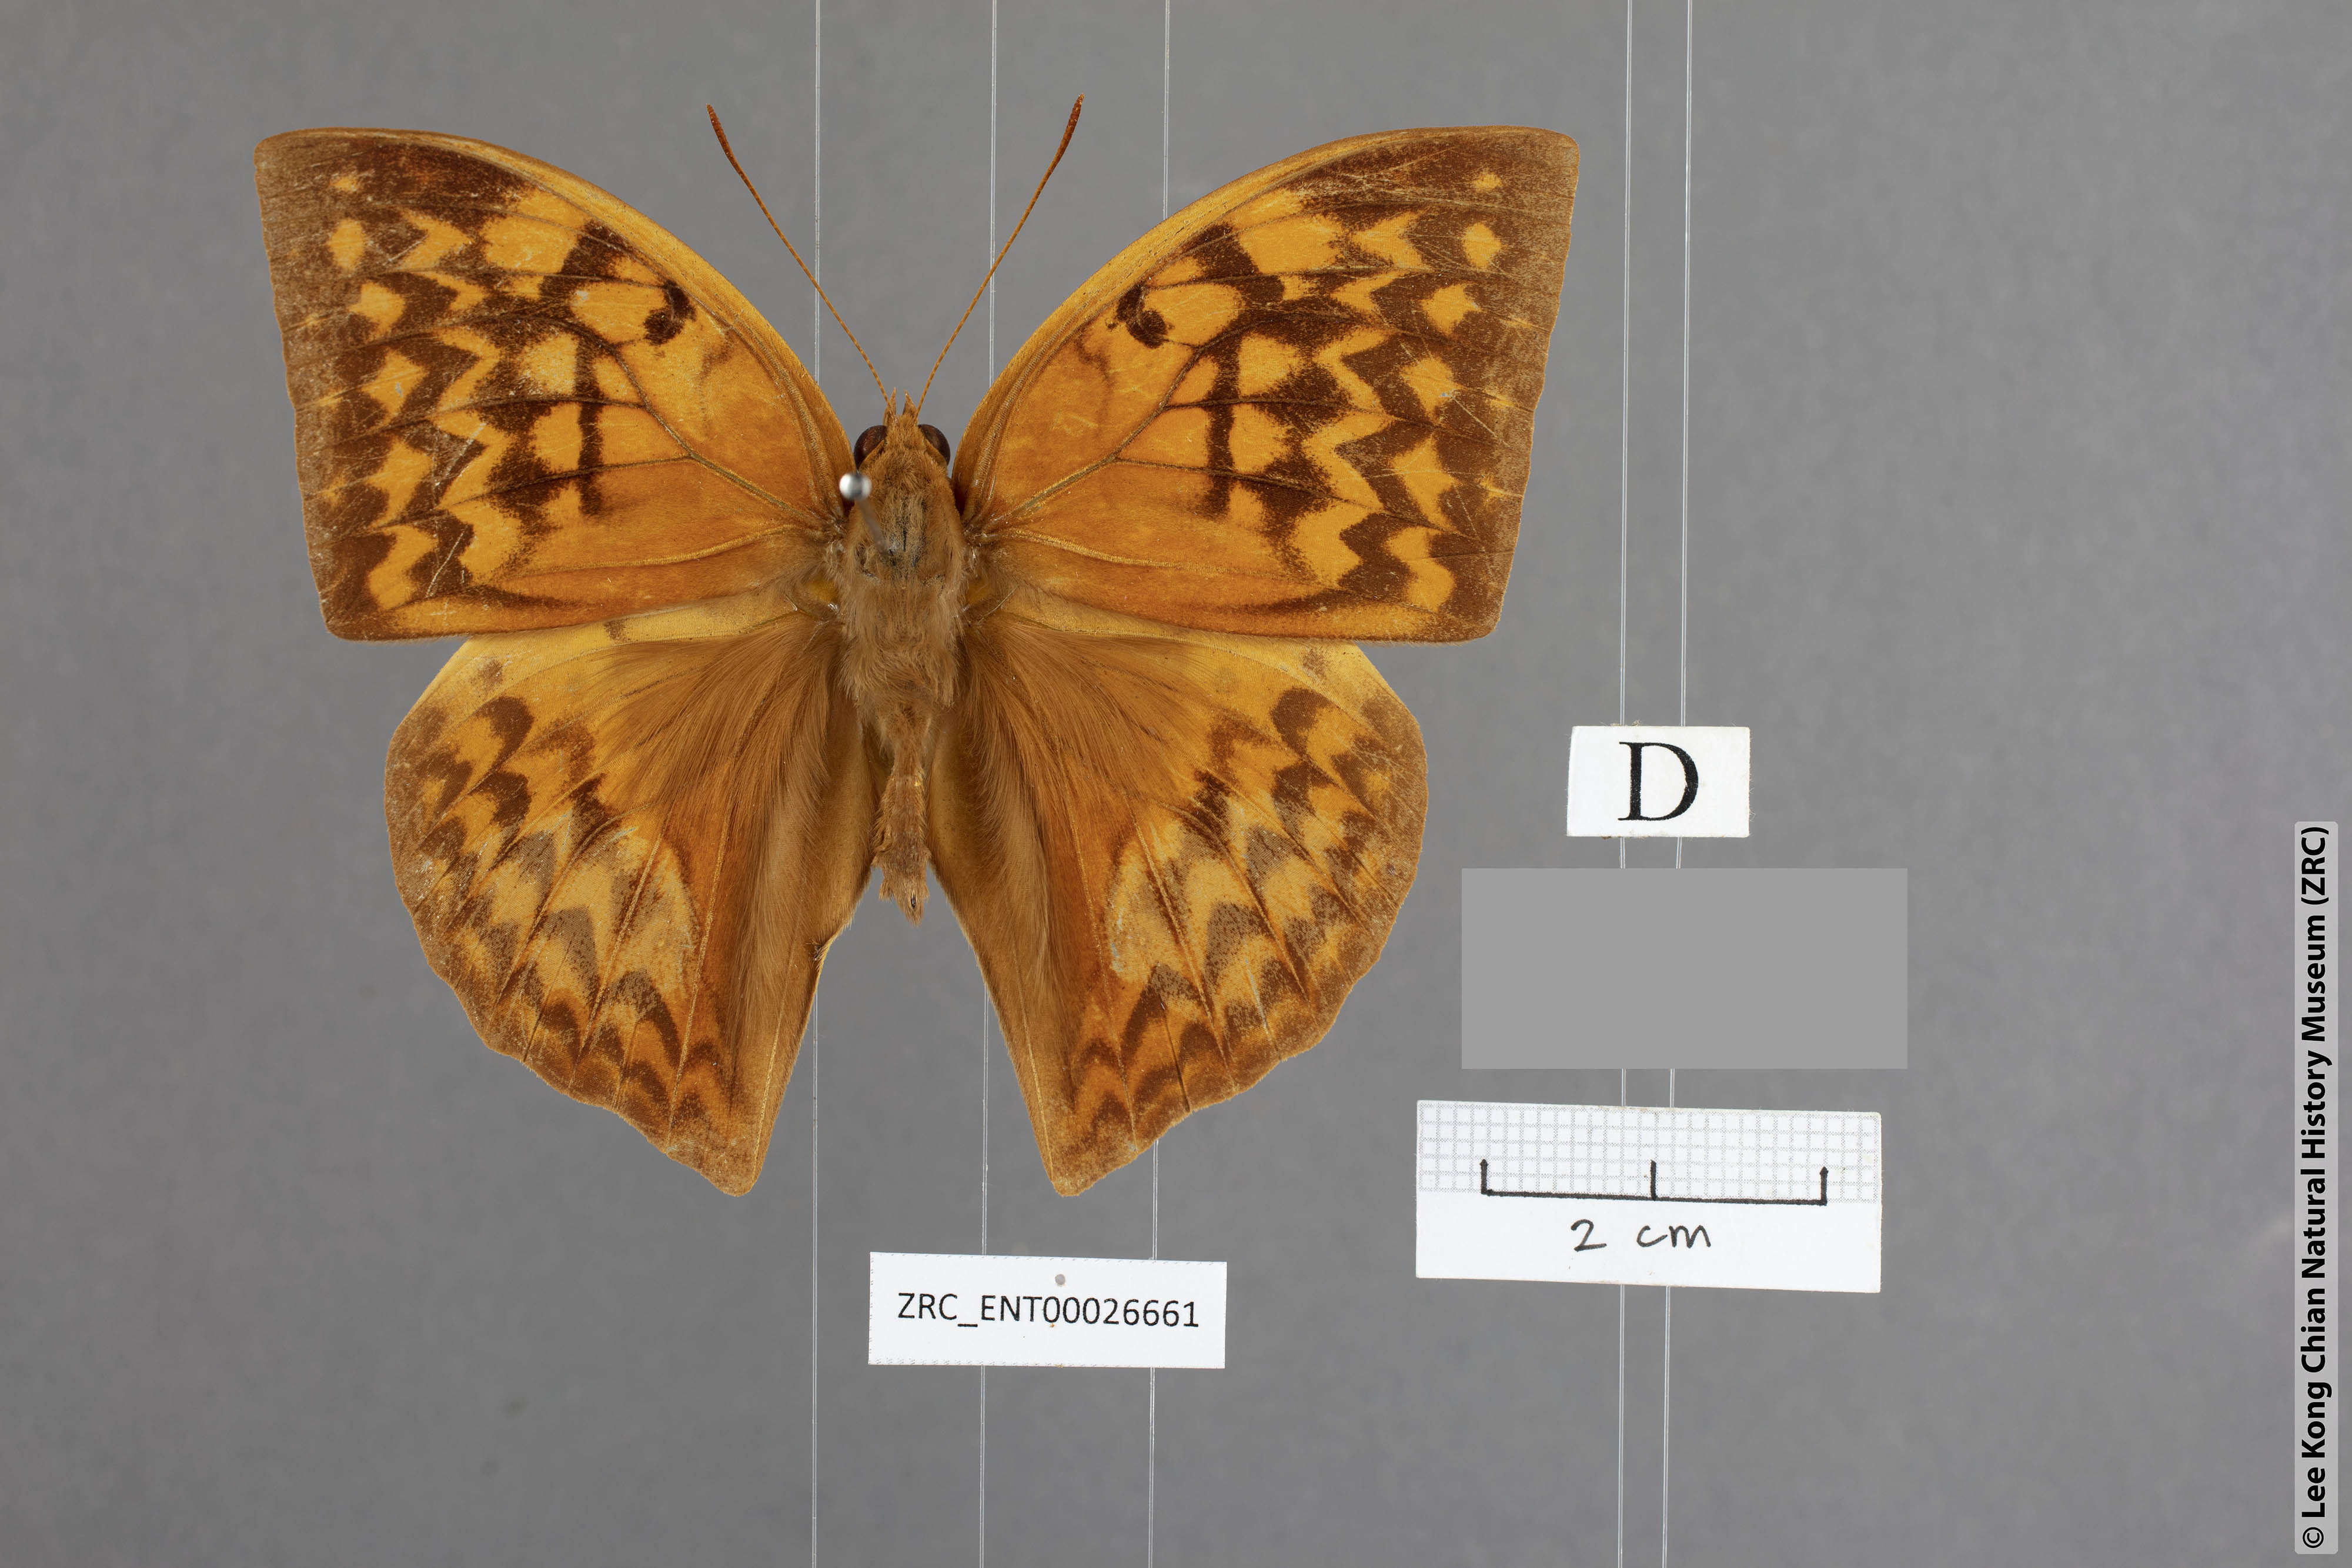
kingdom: Animalia
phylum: Arthropoda
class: Insecta
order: Lepidoptera
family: Nymphalidae
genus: Enispe
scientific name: Enispe intermedia
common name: Intermediate caliph
